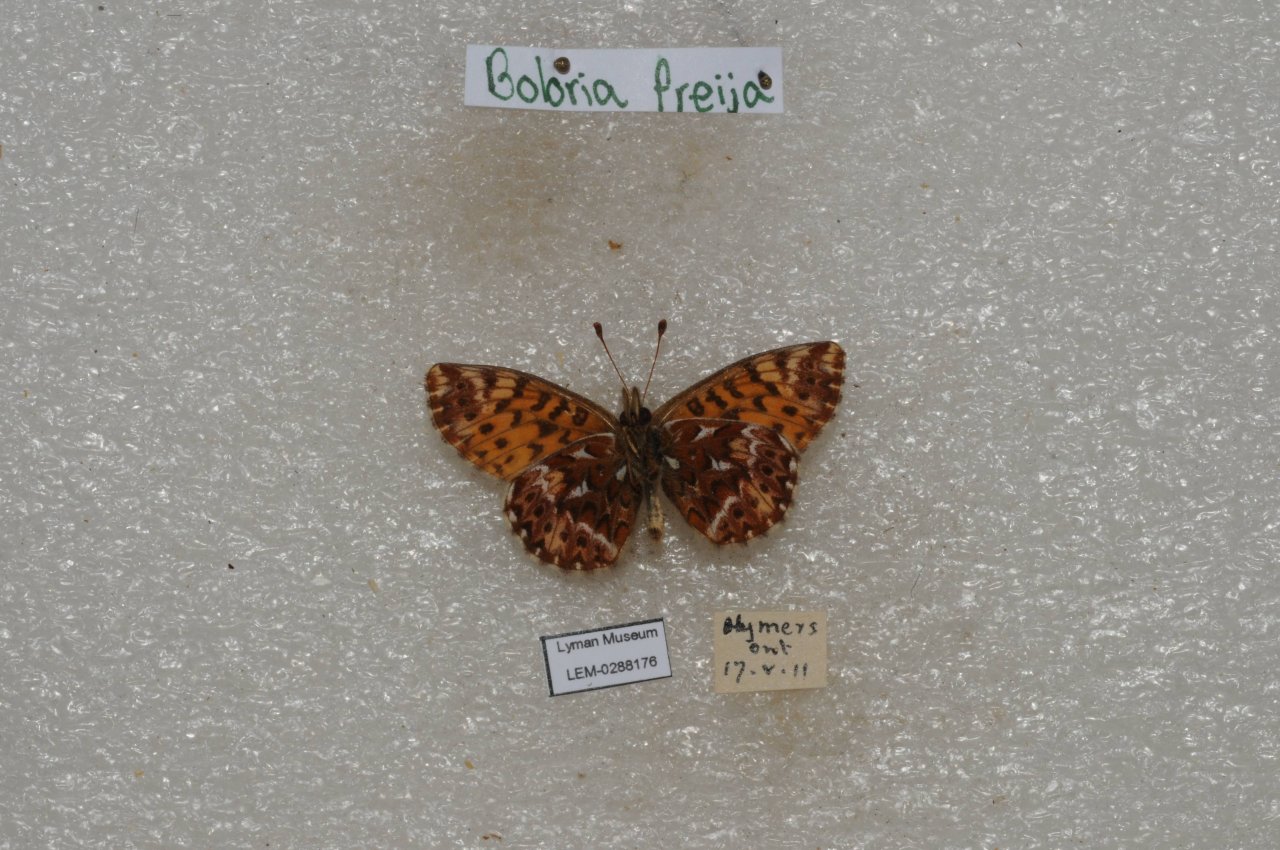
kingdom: Animalia
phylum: Arthropoda
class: Insecta
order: Lepidoptera
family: Nymphalidae
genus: Boloria
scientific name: Boloria freija
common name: Freija Fritillary
